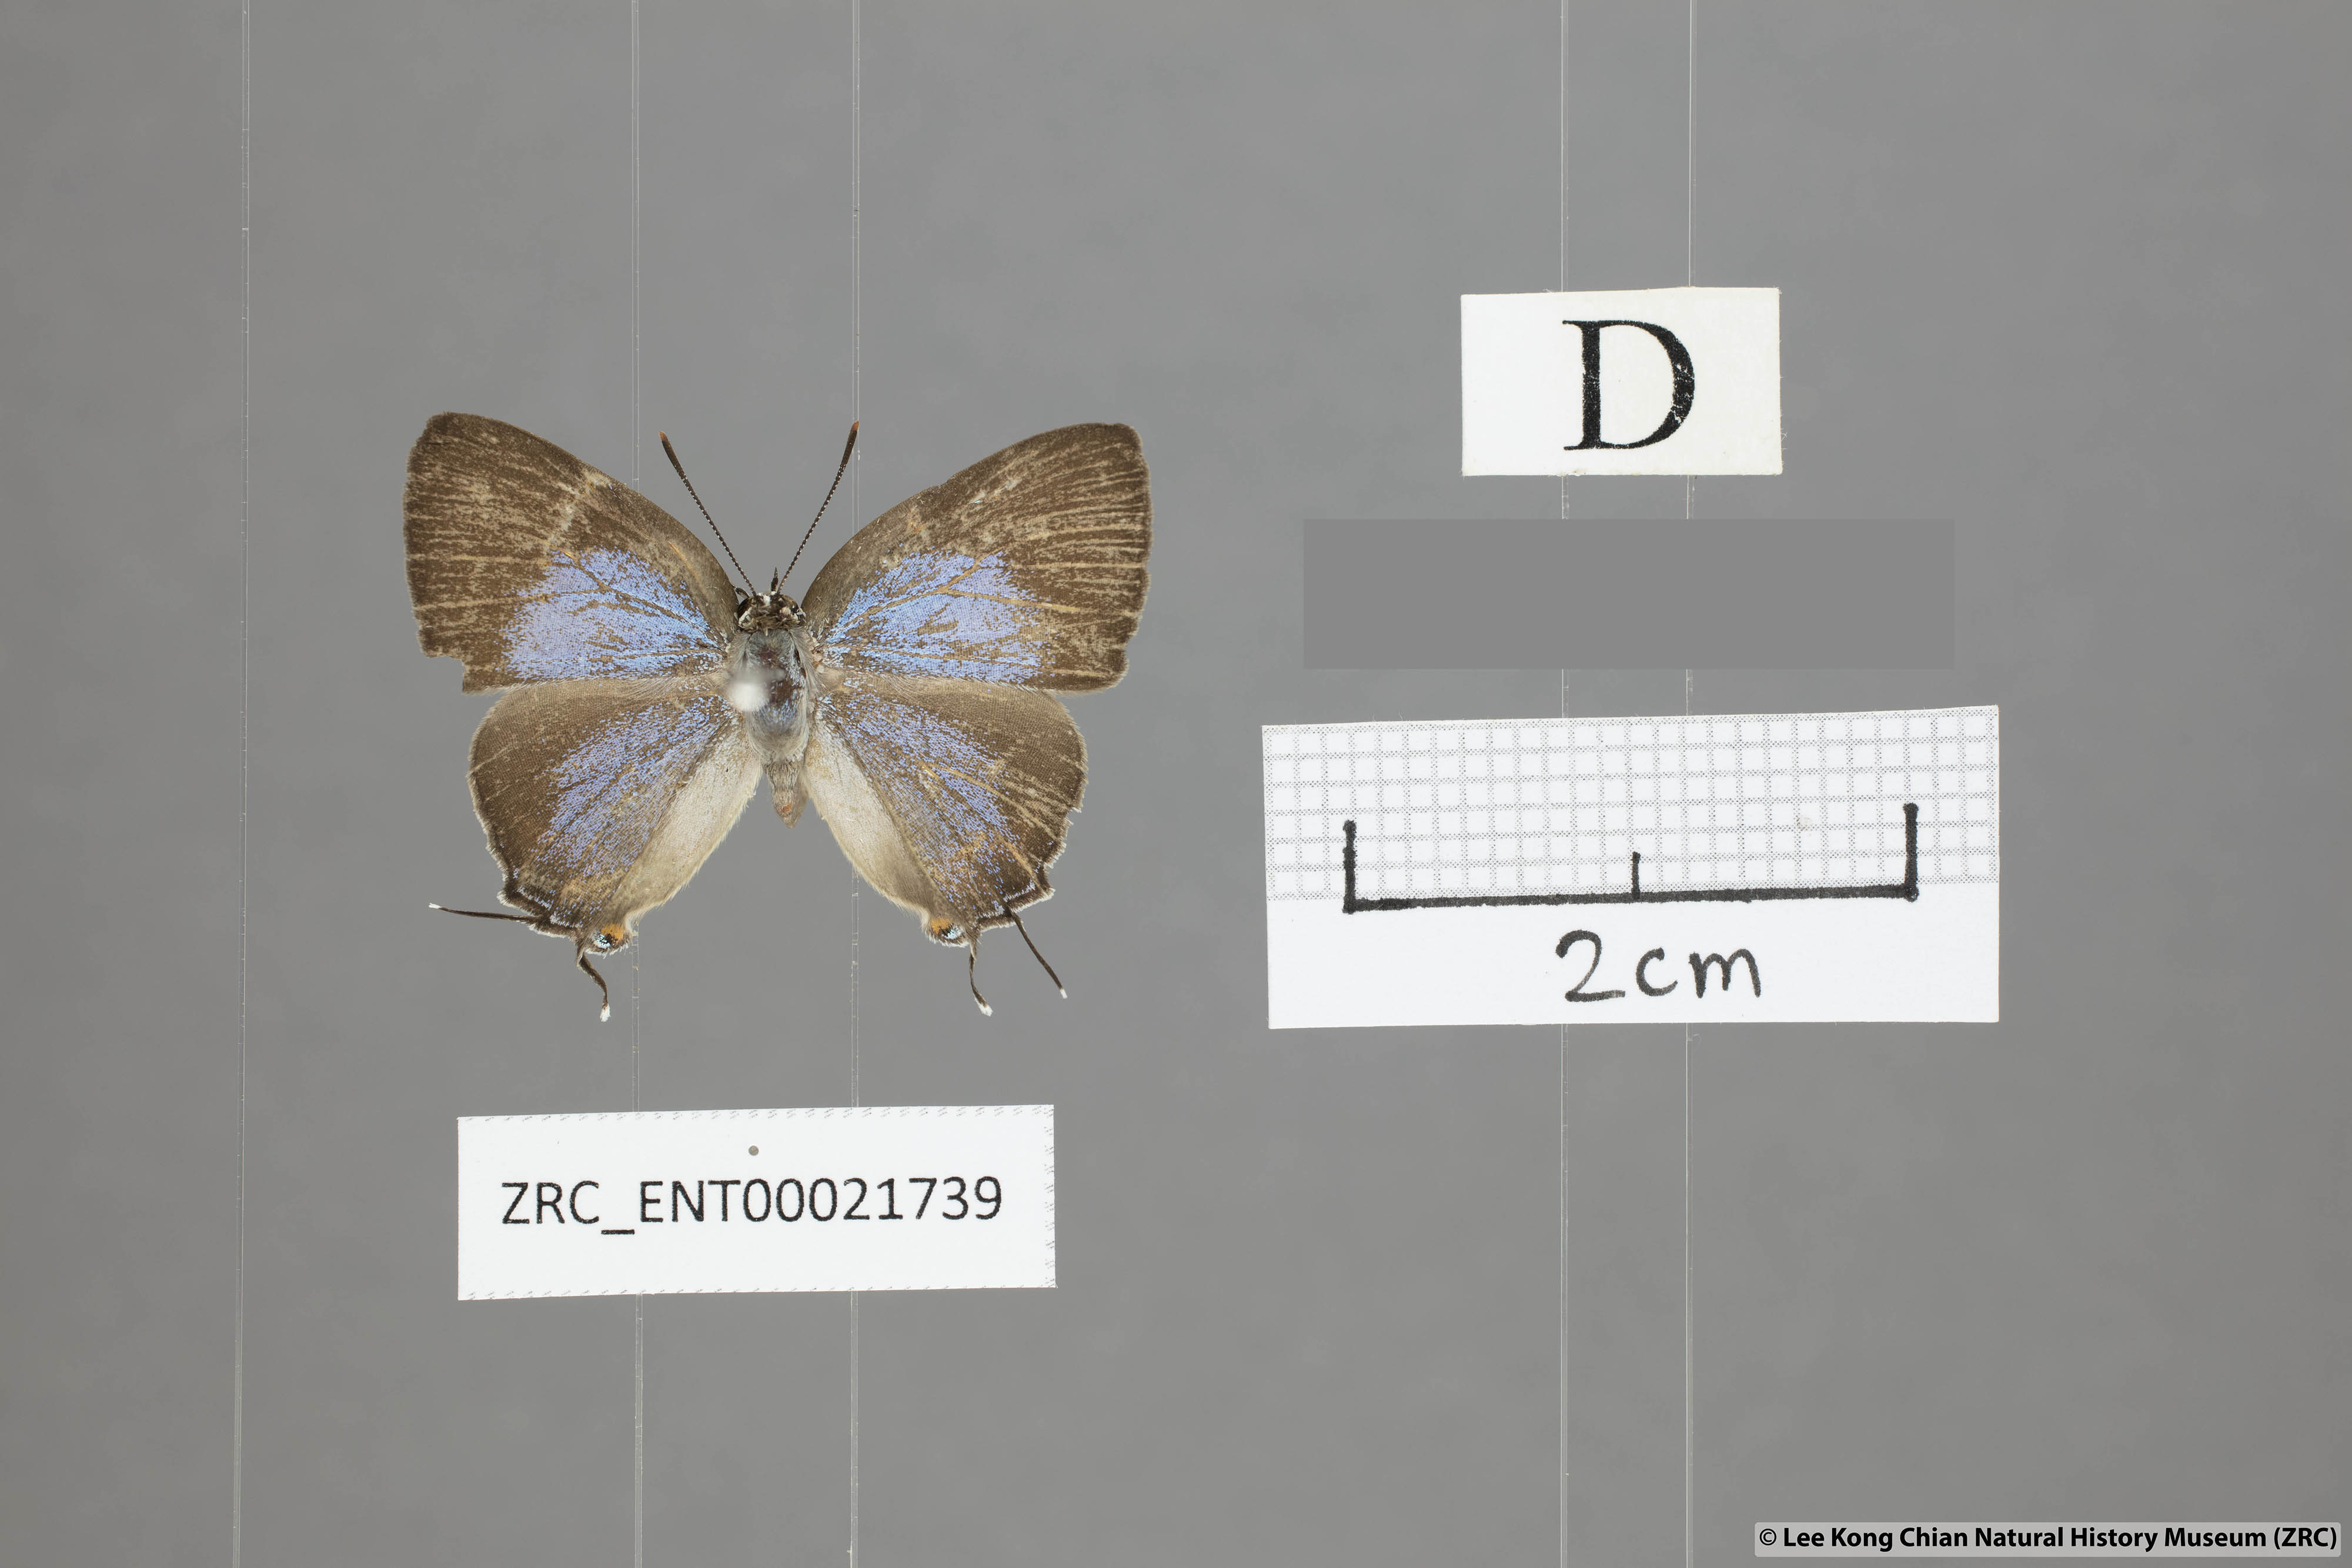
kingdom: Animalia
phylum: Arthropoda
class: Insecta
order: Lepidoptera
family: Lycaenidae
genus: Pratapa
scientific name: Pratapa icetas
